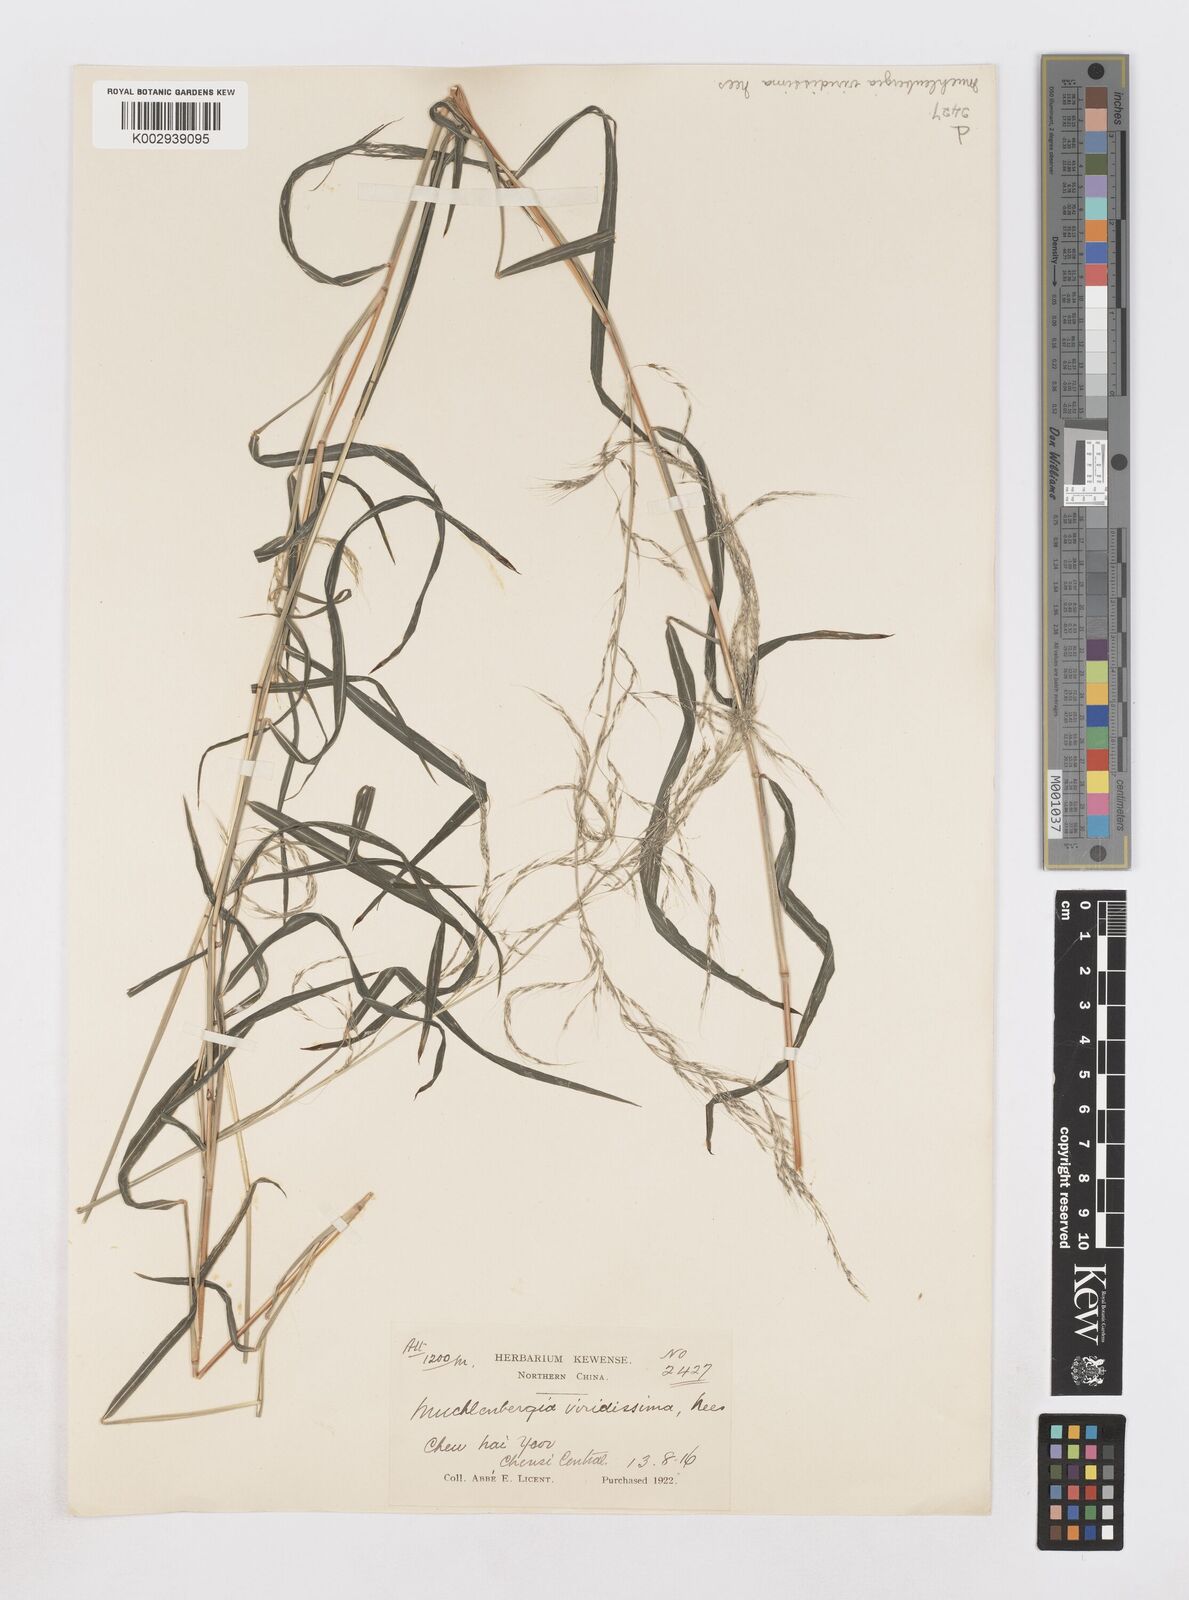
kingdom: Plantae
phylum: Tracheophyta
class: Liliopsida
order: Poales
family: Poaceae
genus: Muhlenbergia
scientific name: Muhlenbergia huegelii
